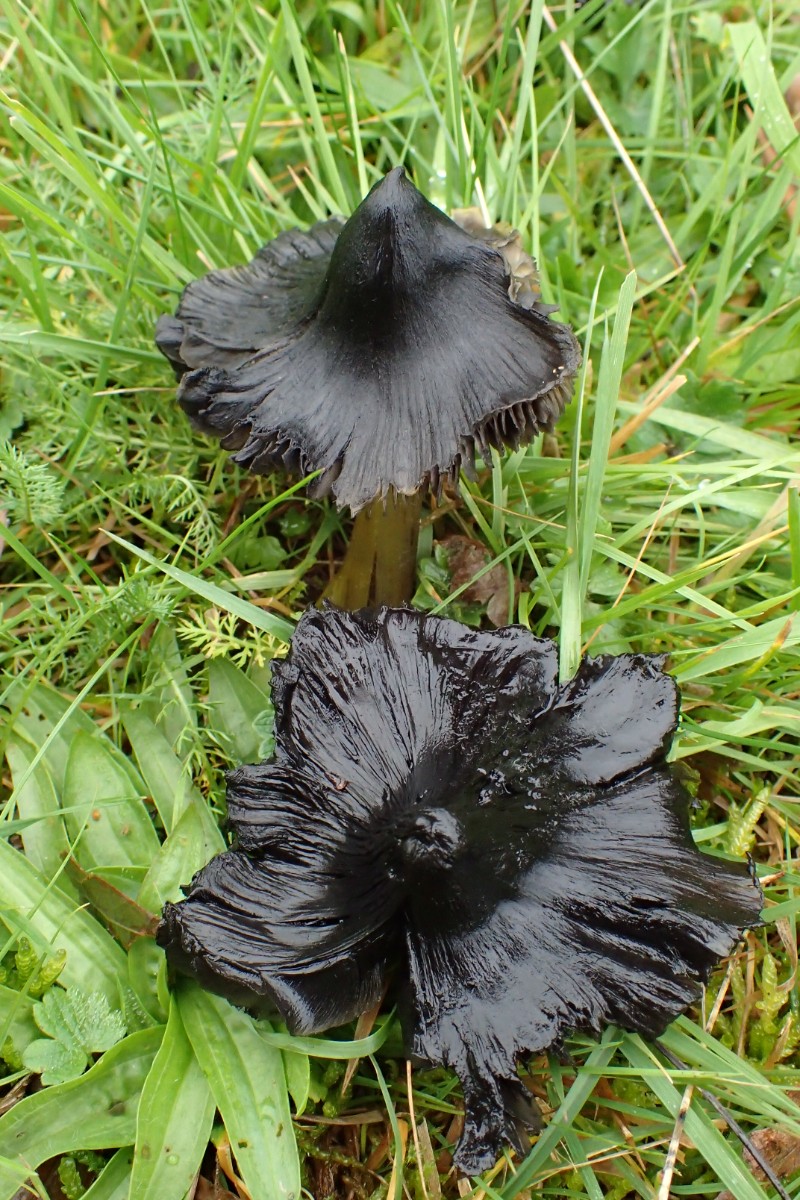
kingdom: Fungi
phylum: Basidiomycota
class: Agaricomycetes
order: Agaricales
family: Hygrophoraceae
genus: Hygrocybe
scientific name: Hygrocybe conica
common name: kegle-vokshat
